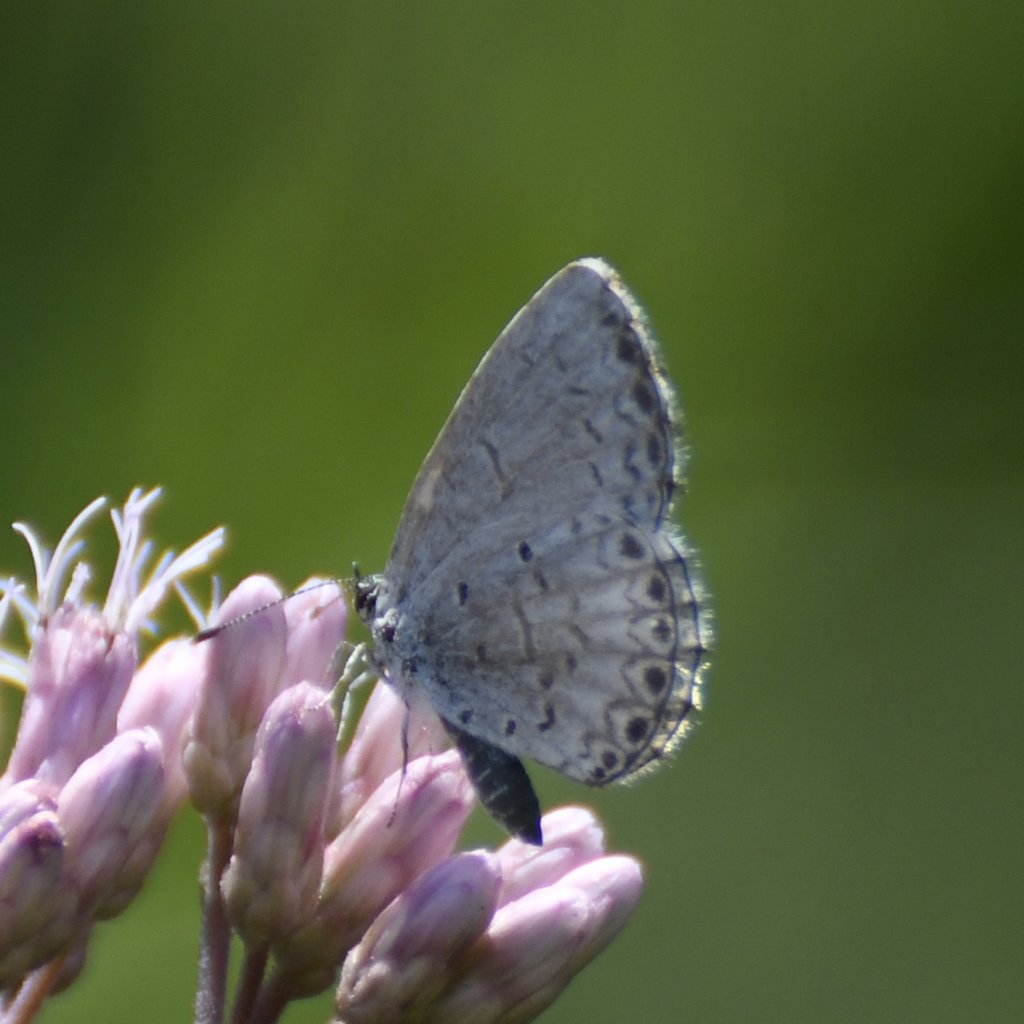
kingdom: Animalia
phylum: Arthropoda
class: Insecta
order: Lepidoptera
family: Lycaenidae
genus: Celastrina
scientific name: Celastrina lucia
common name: Northern Spring Azure
